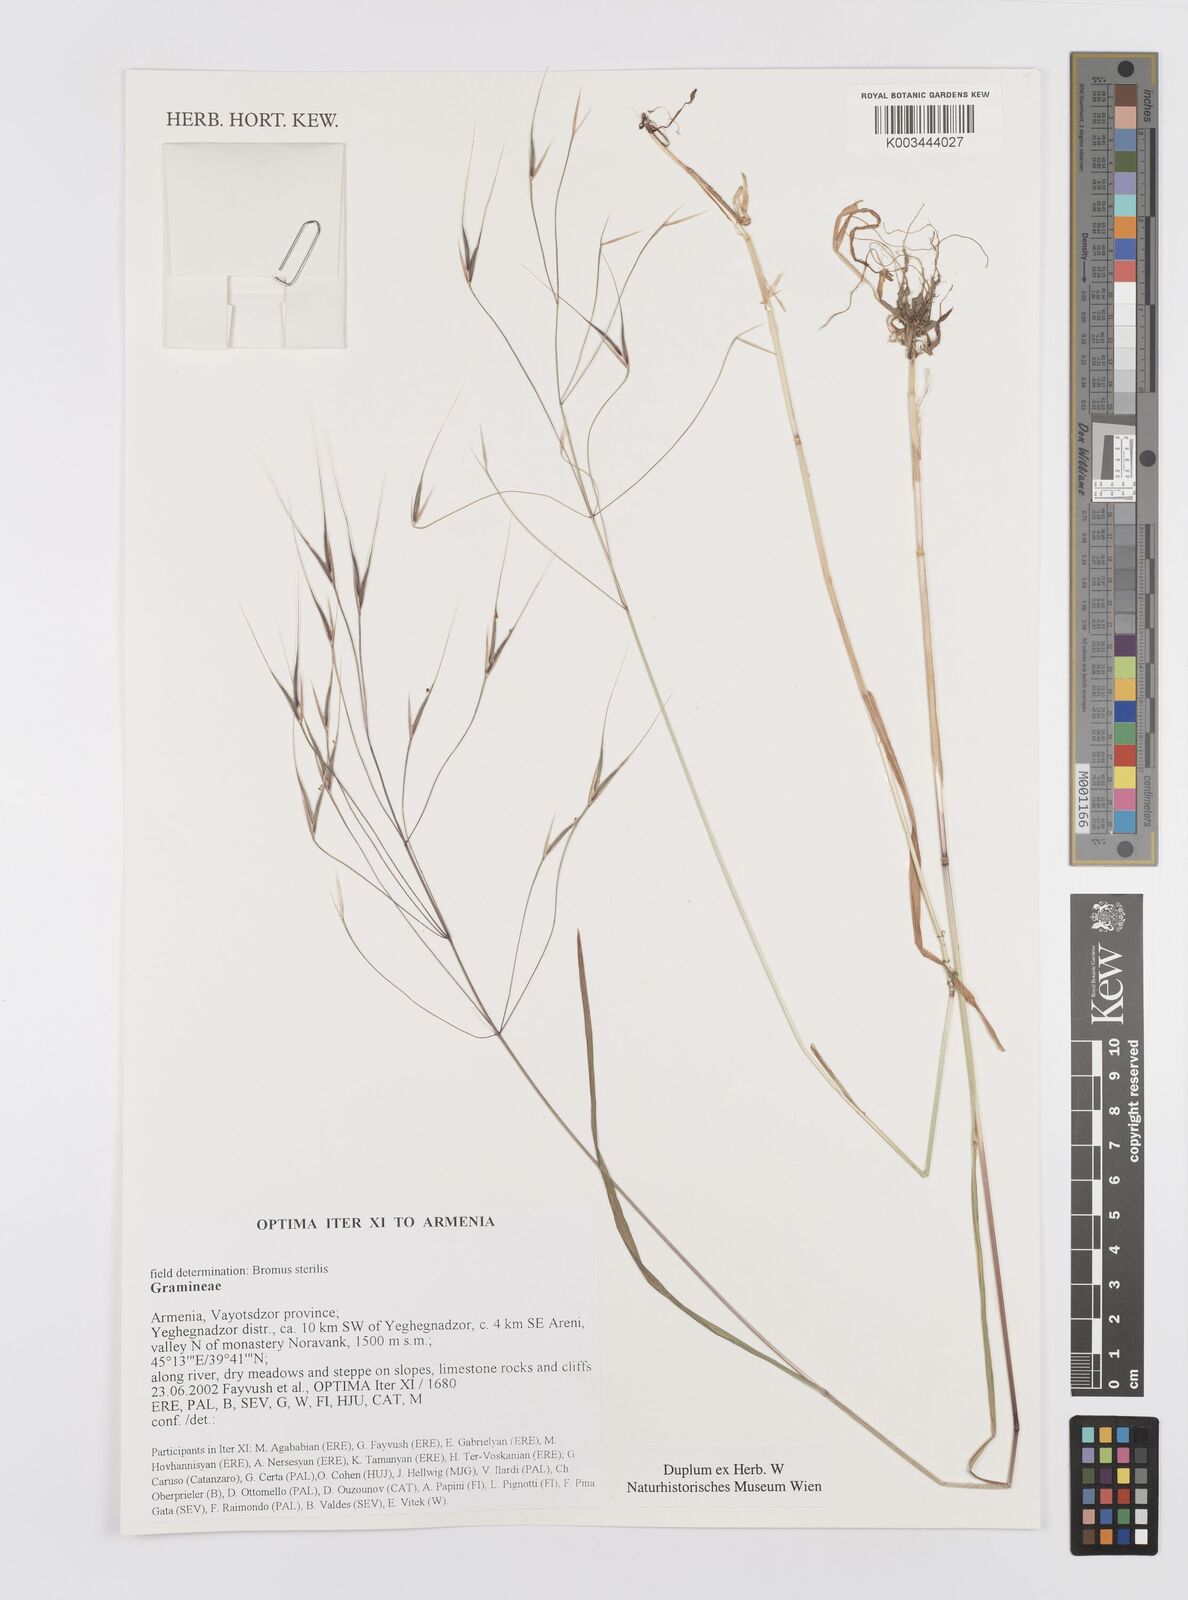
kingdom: Plantae
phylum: Tracheophyta
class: Liliopsida
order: Poales
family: Poaceae
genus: Bromus
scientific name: Bromus sterilis
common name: Poverty brome
